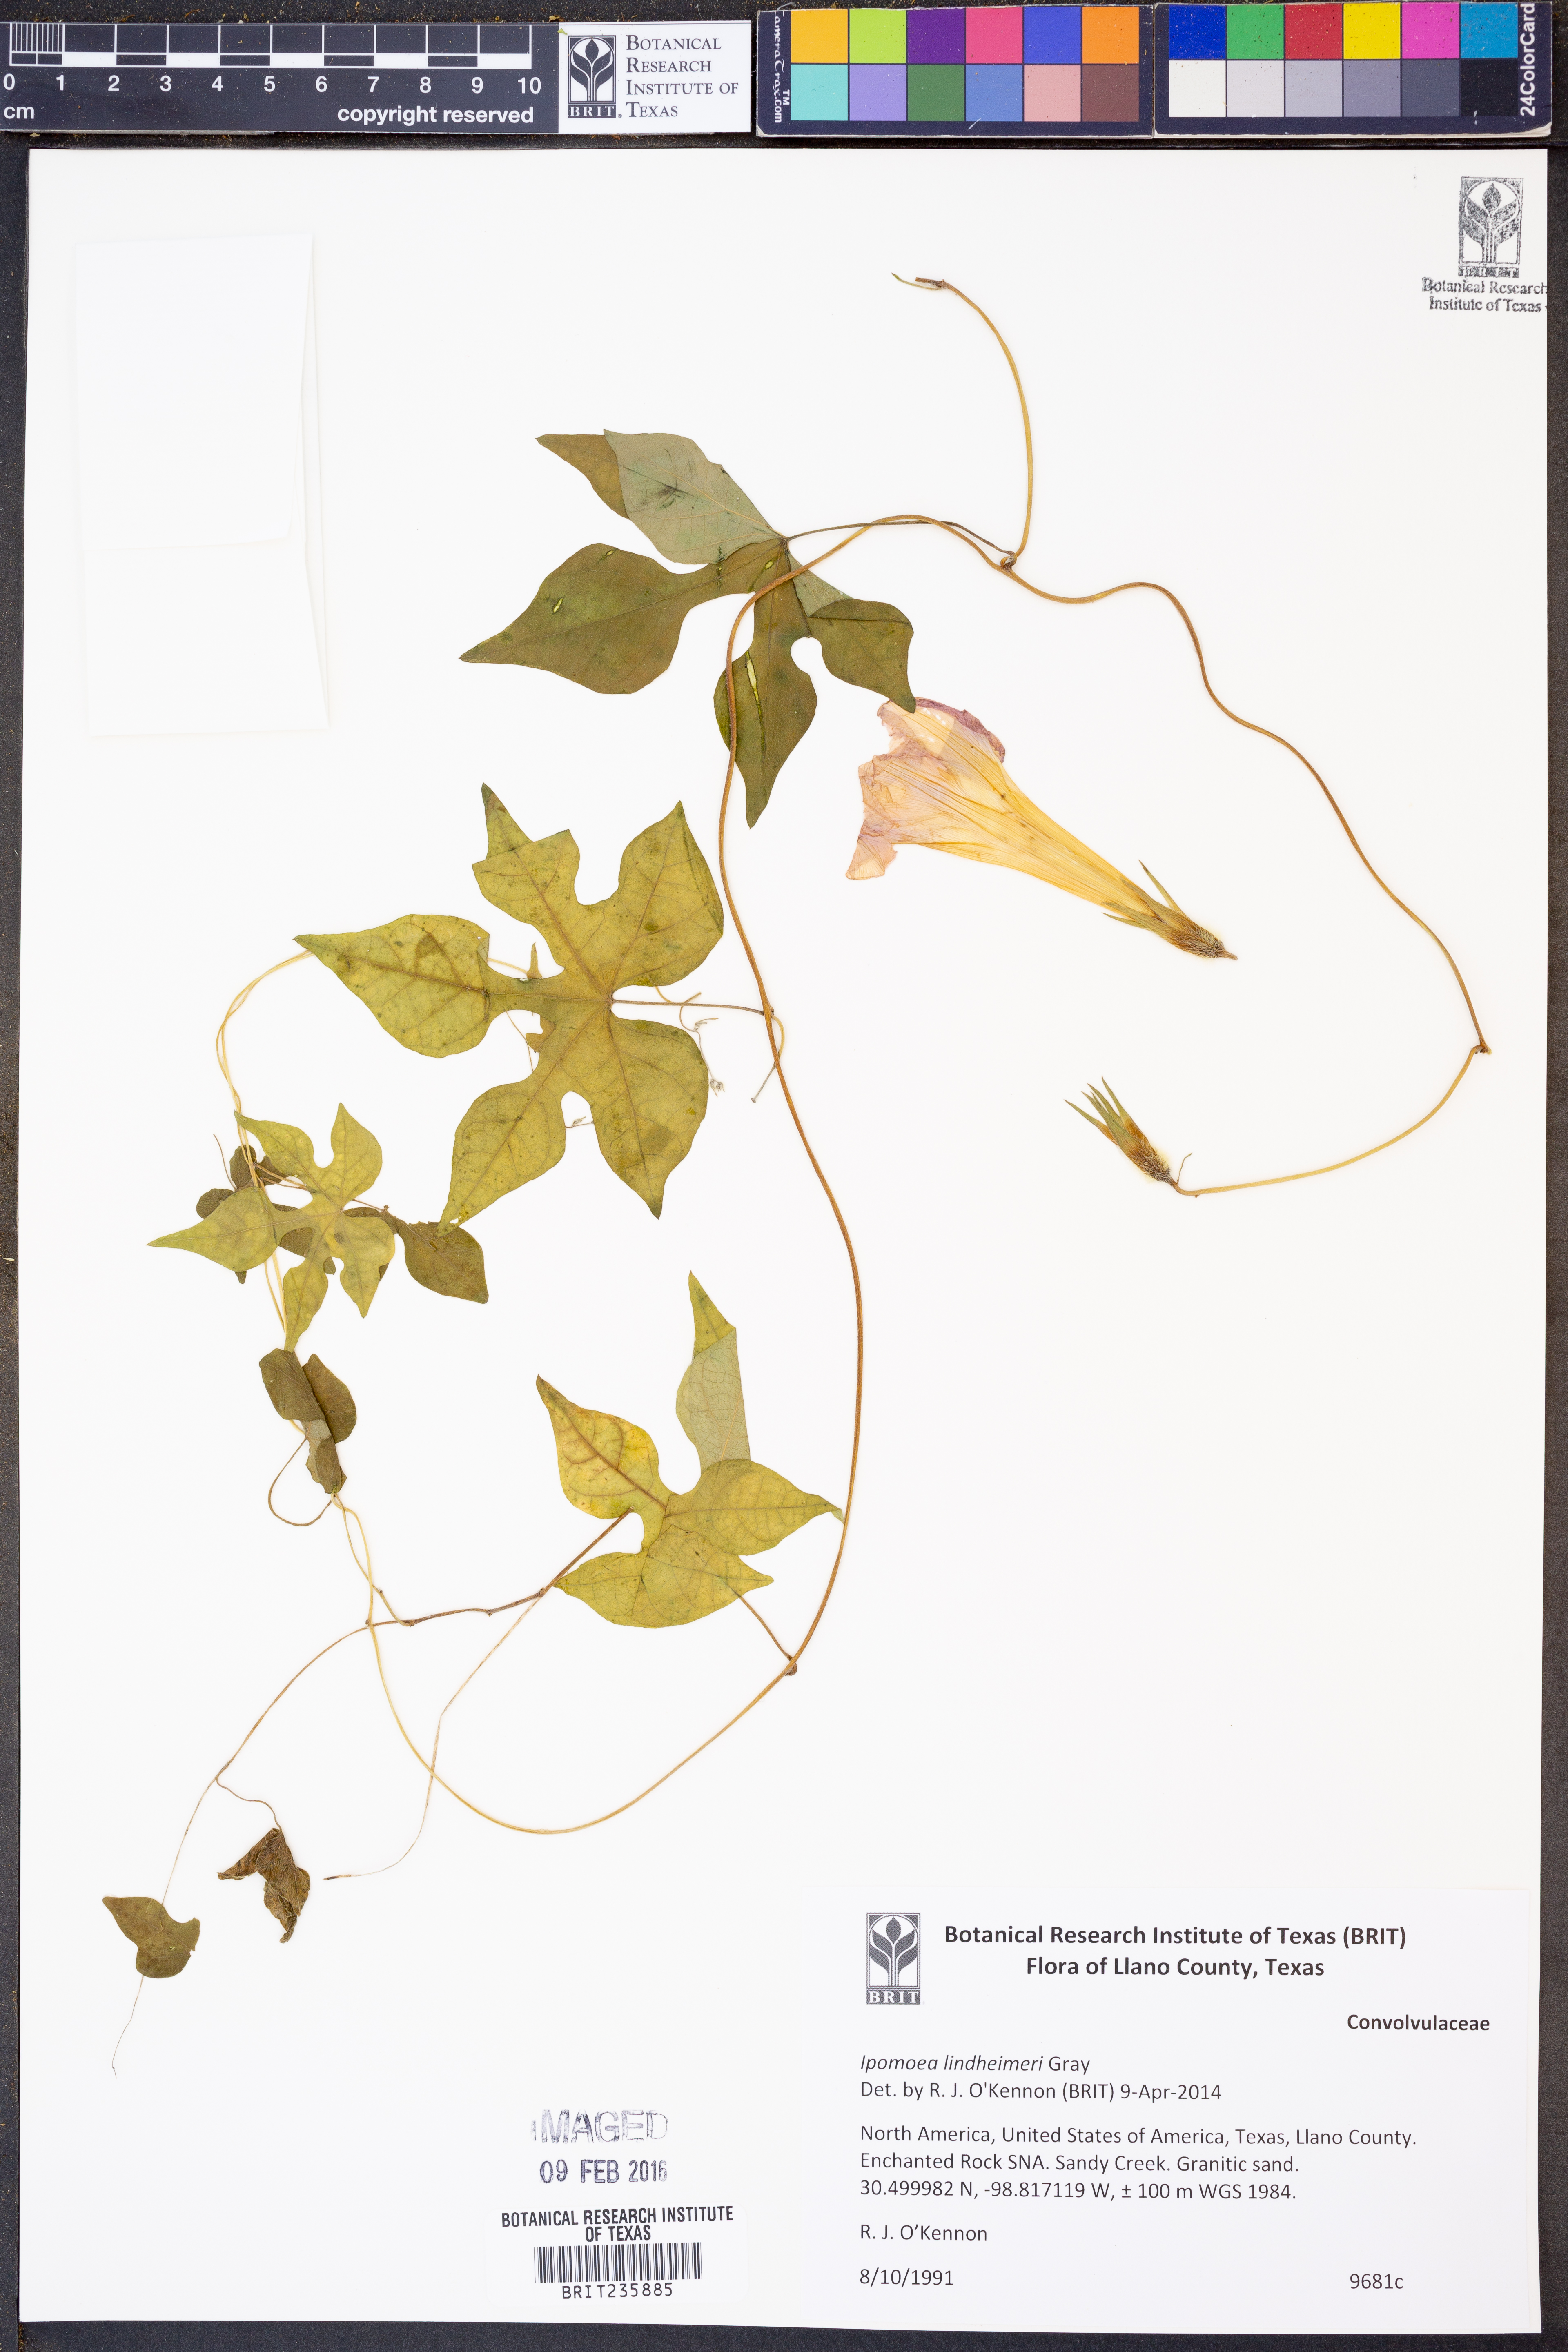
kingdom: Plantae
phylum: Tracheophyta
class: Magnoliopsida
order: Solanales
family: Convolvulaceae
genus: Ipomoea
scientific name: Ipomoea lindheimeri
